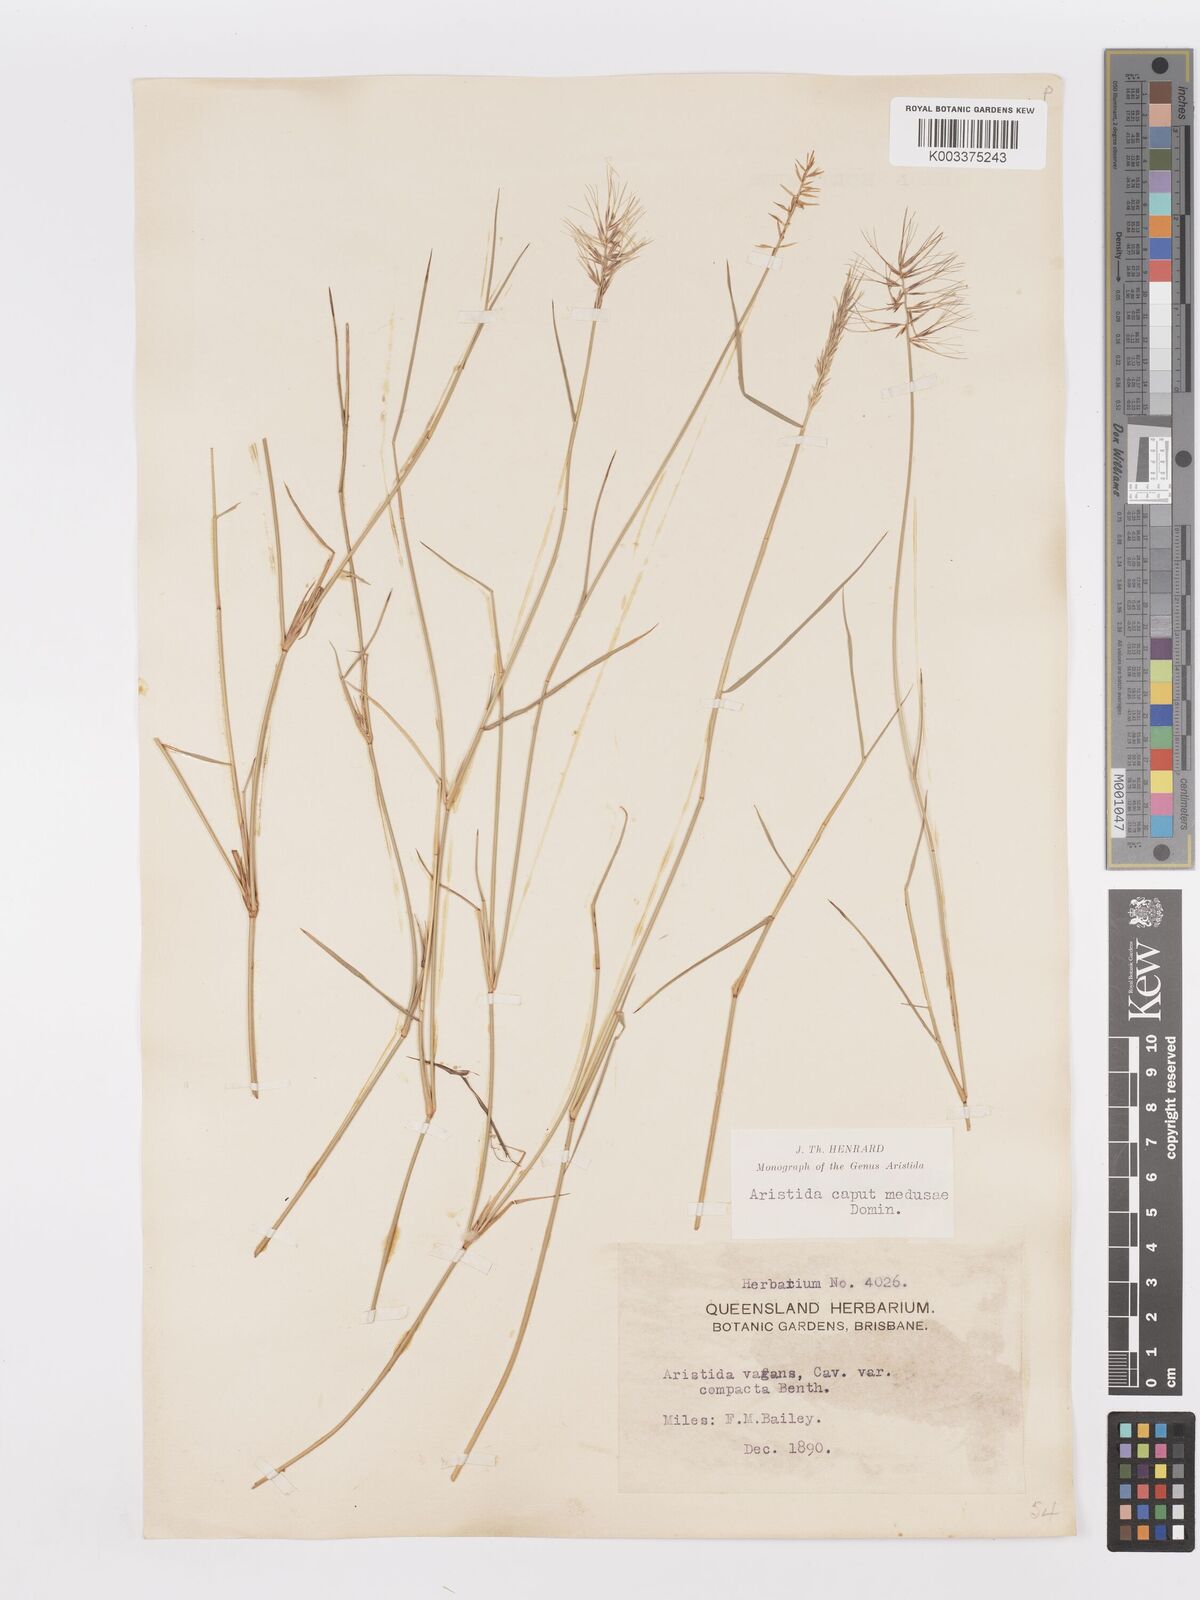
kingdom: Plantae
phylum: Tracheophyta
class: Liliopsida
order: Poales
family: Poaceae
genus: Aristida
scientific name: Aristida caput-medusae
